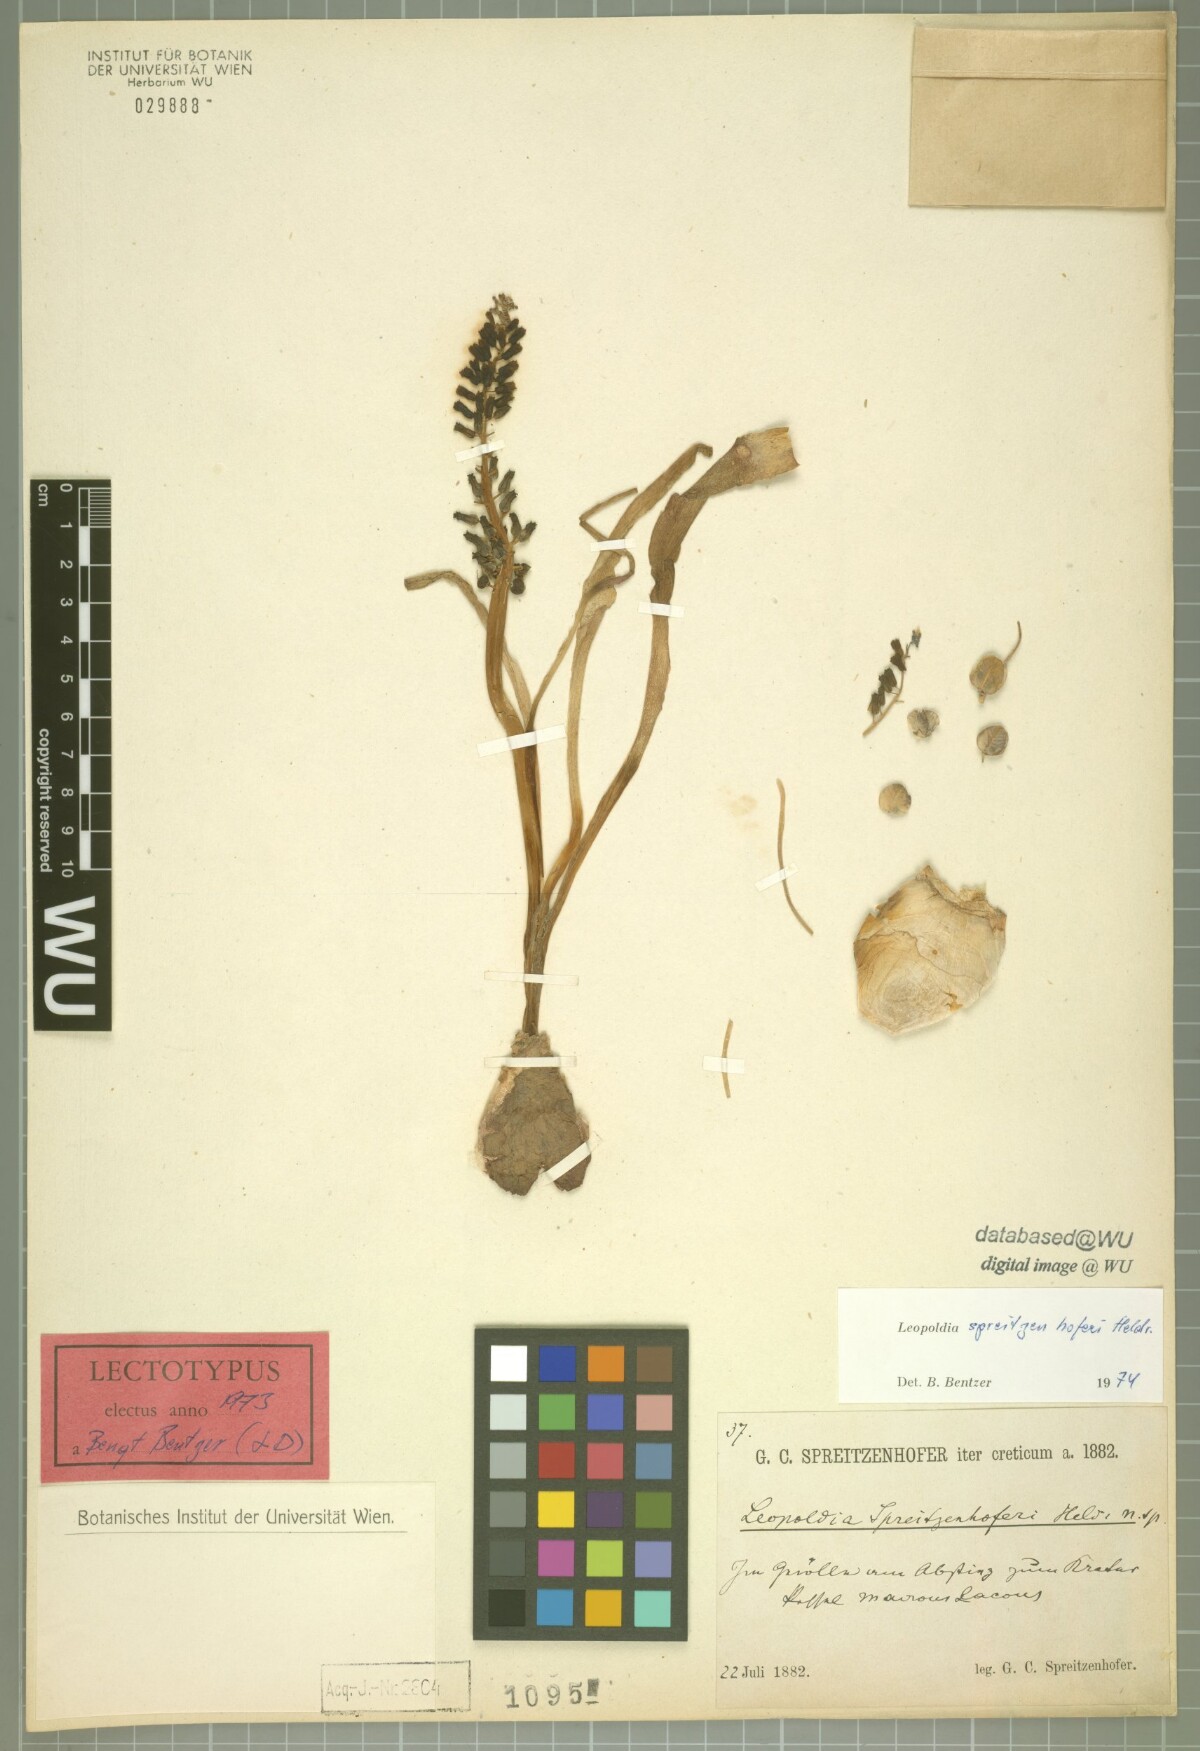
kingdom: Plantae
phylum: Tracheophyta
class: Liliopsida
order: Asparagales
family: Asparagaceae
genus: Muscari
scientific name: Muscari spreitzenhoferi
